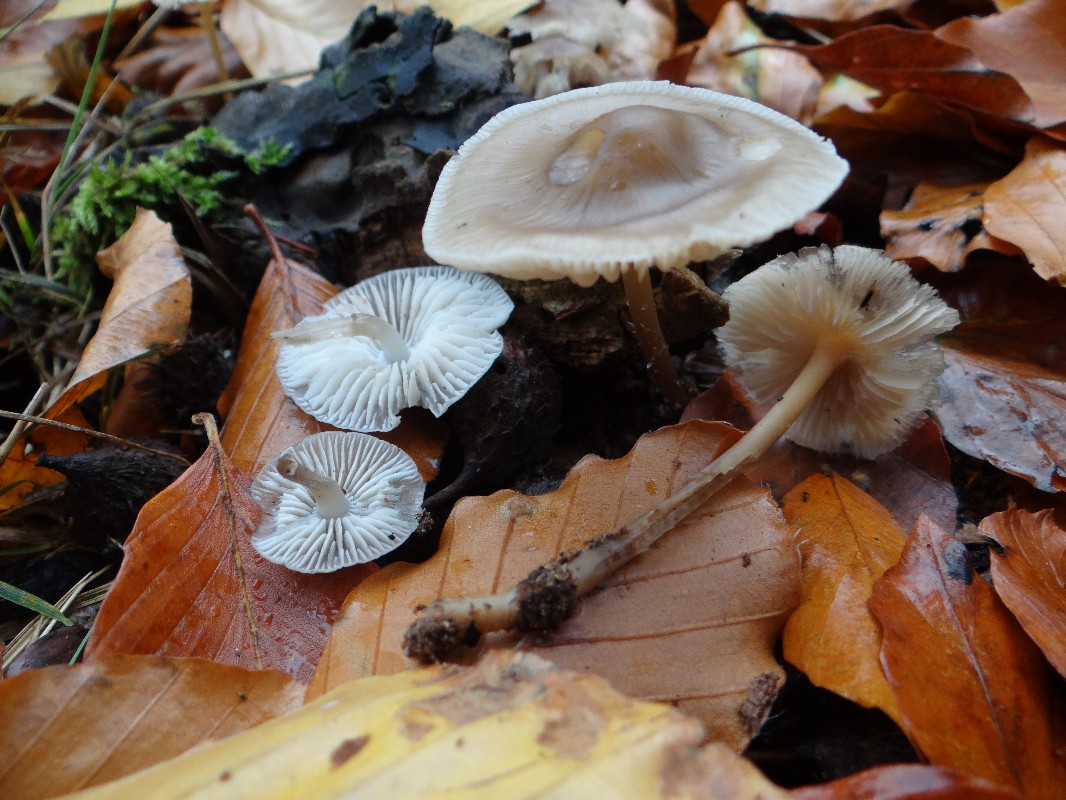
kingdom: Fungi
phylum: Basidiomycota
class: Agaricomycetes
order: Agaricales
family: Mycenaceae
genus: Mycena
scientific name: Mycena galericulata
